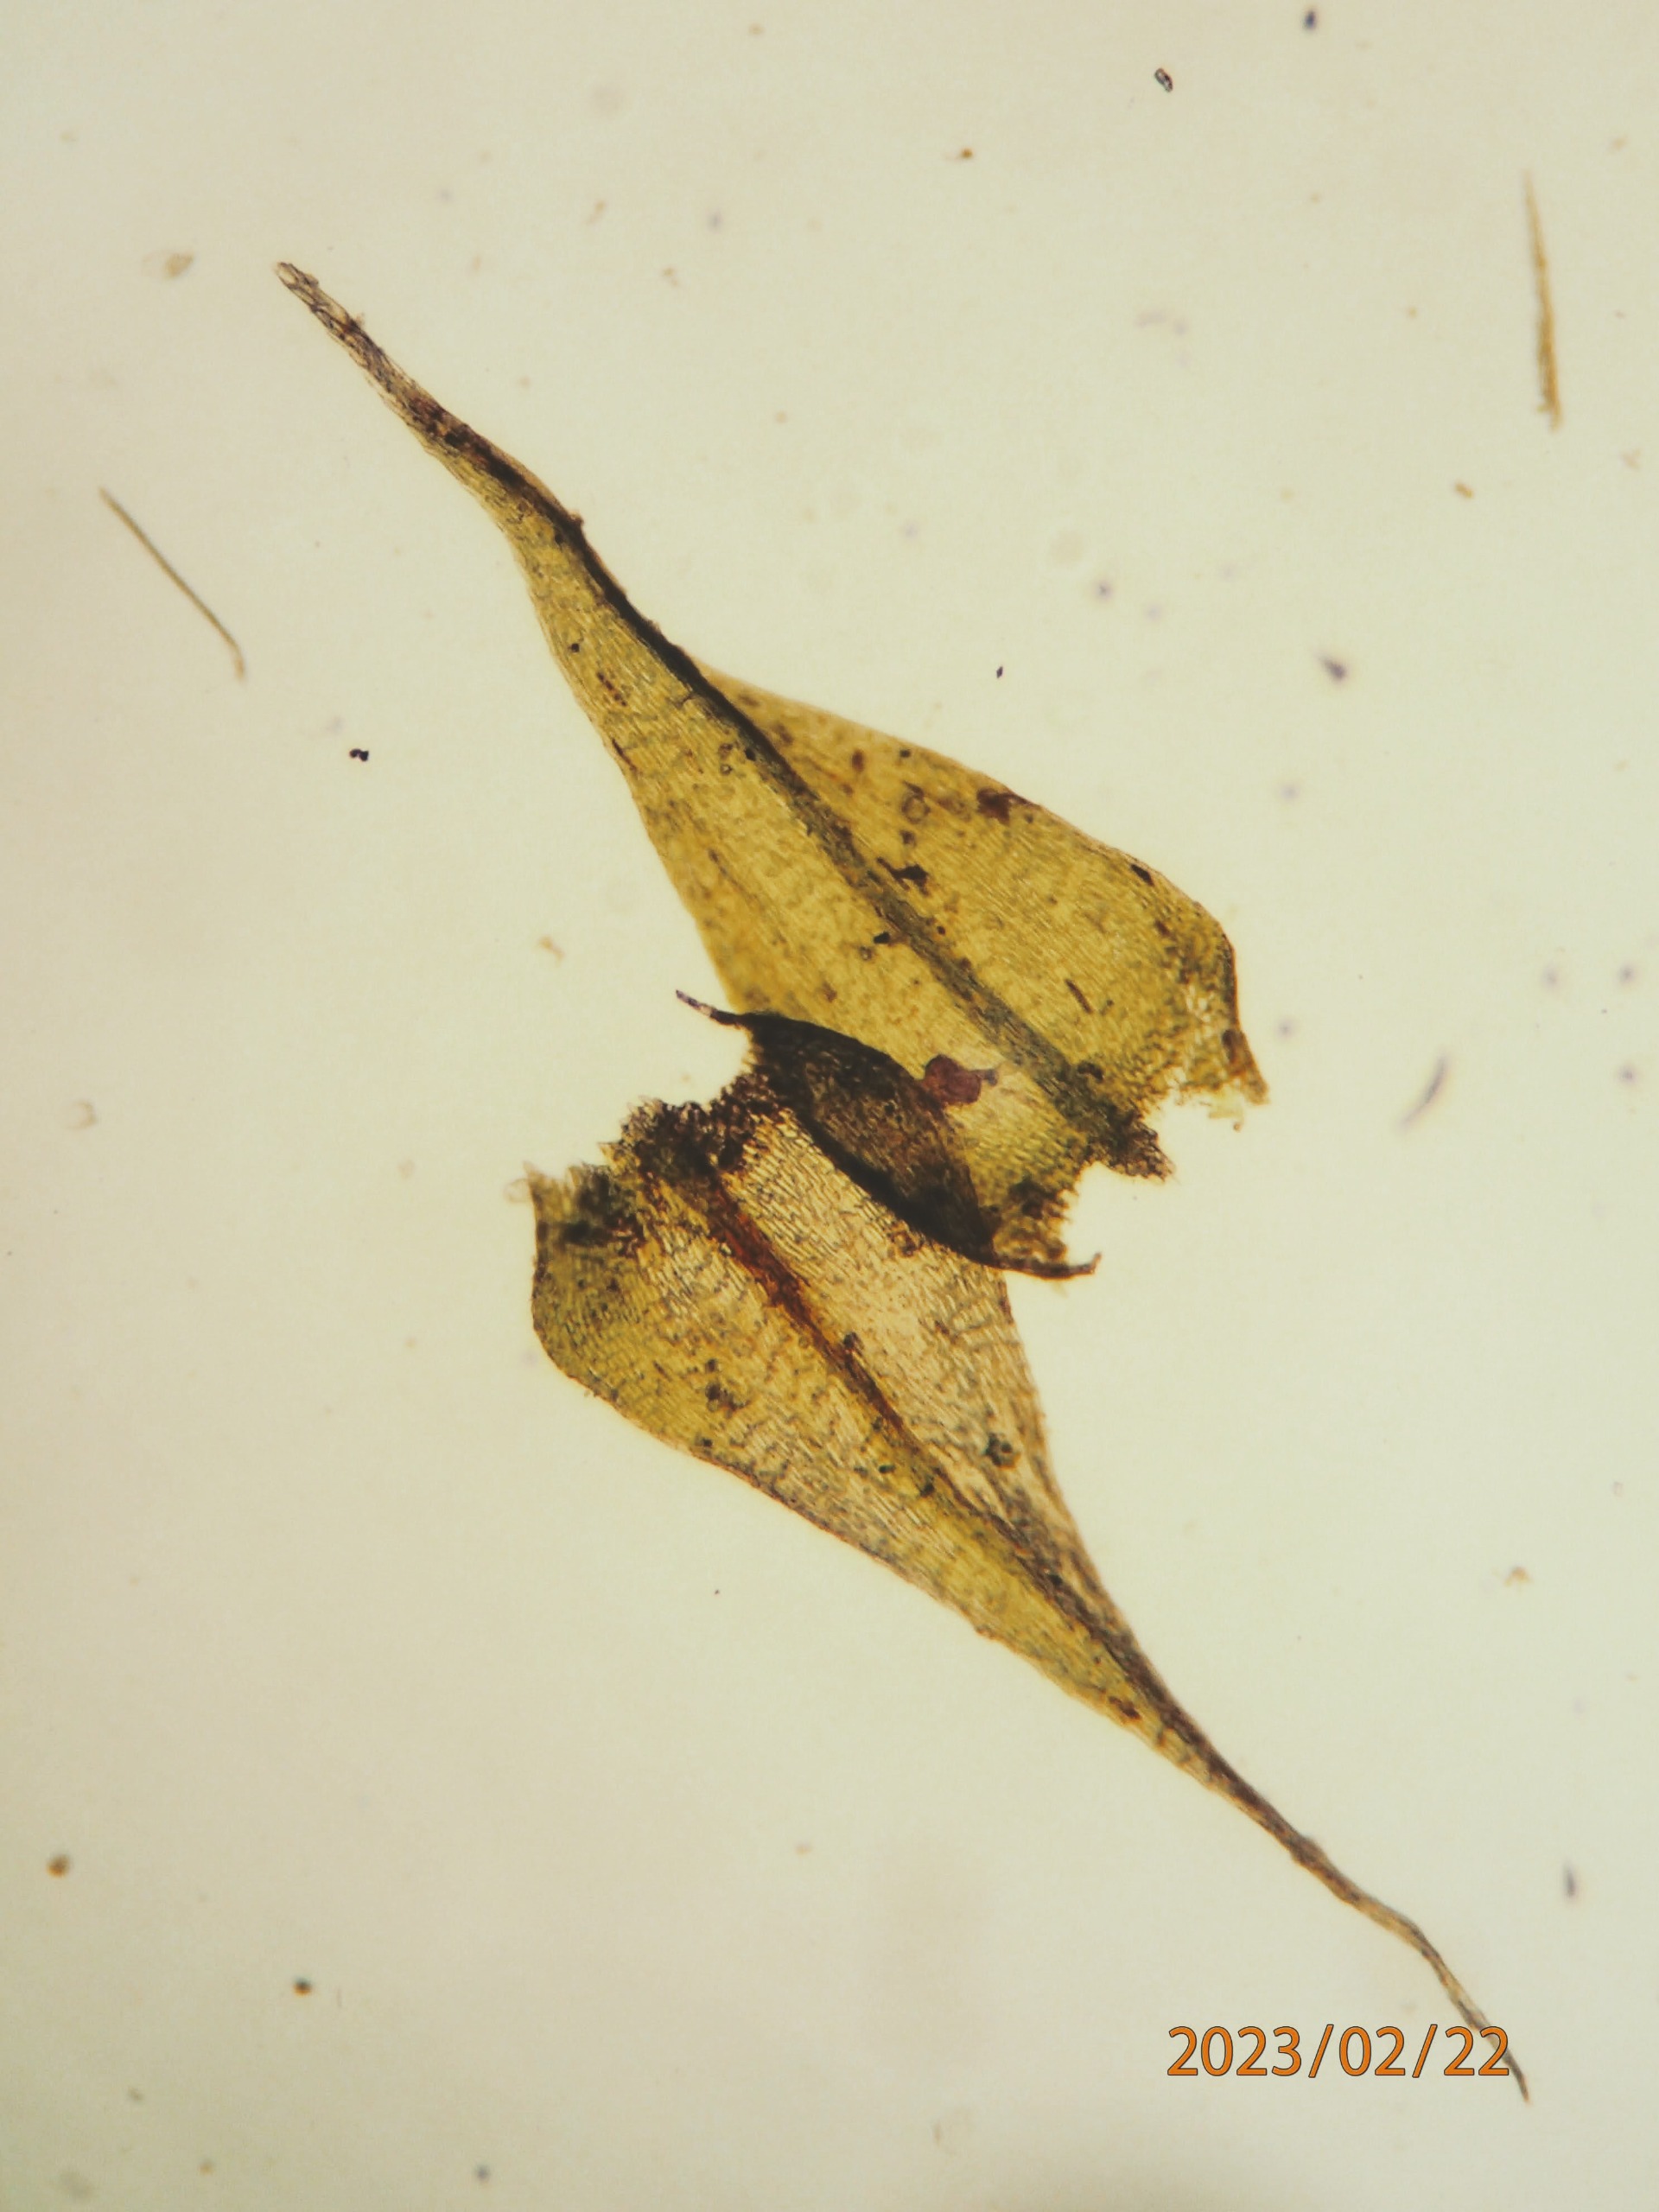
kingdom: Plantae
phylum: Bryophyta
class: Bryopsida
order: Hypnales
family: Brachytheciaceae
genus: Sciuro-hypnum
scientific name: Sciuro-hypnum populeum
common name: Park-kortkapsel
